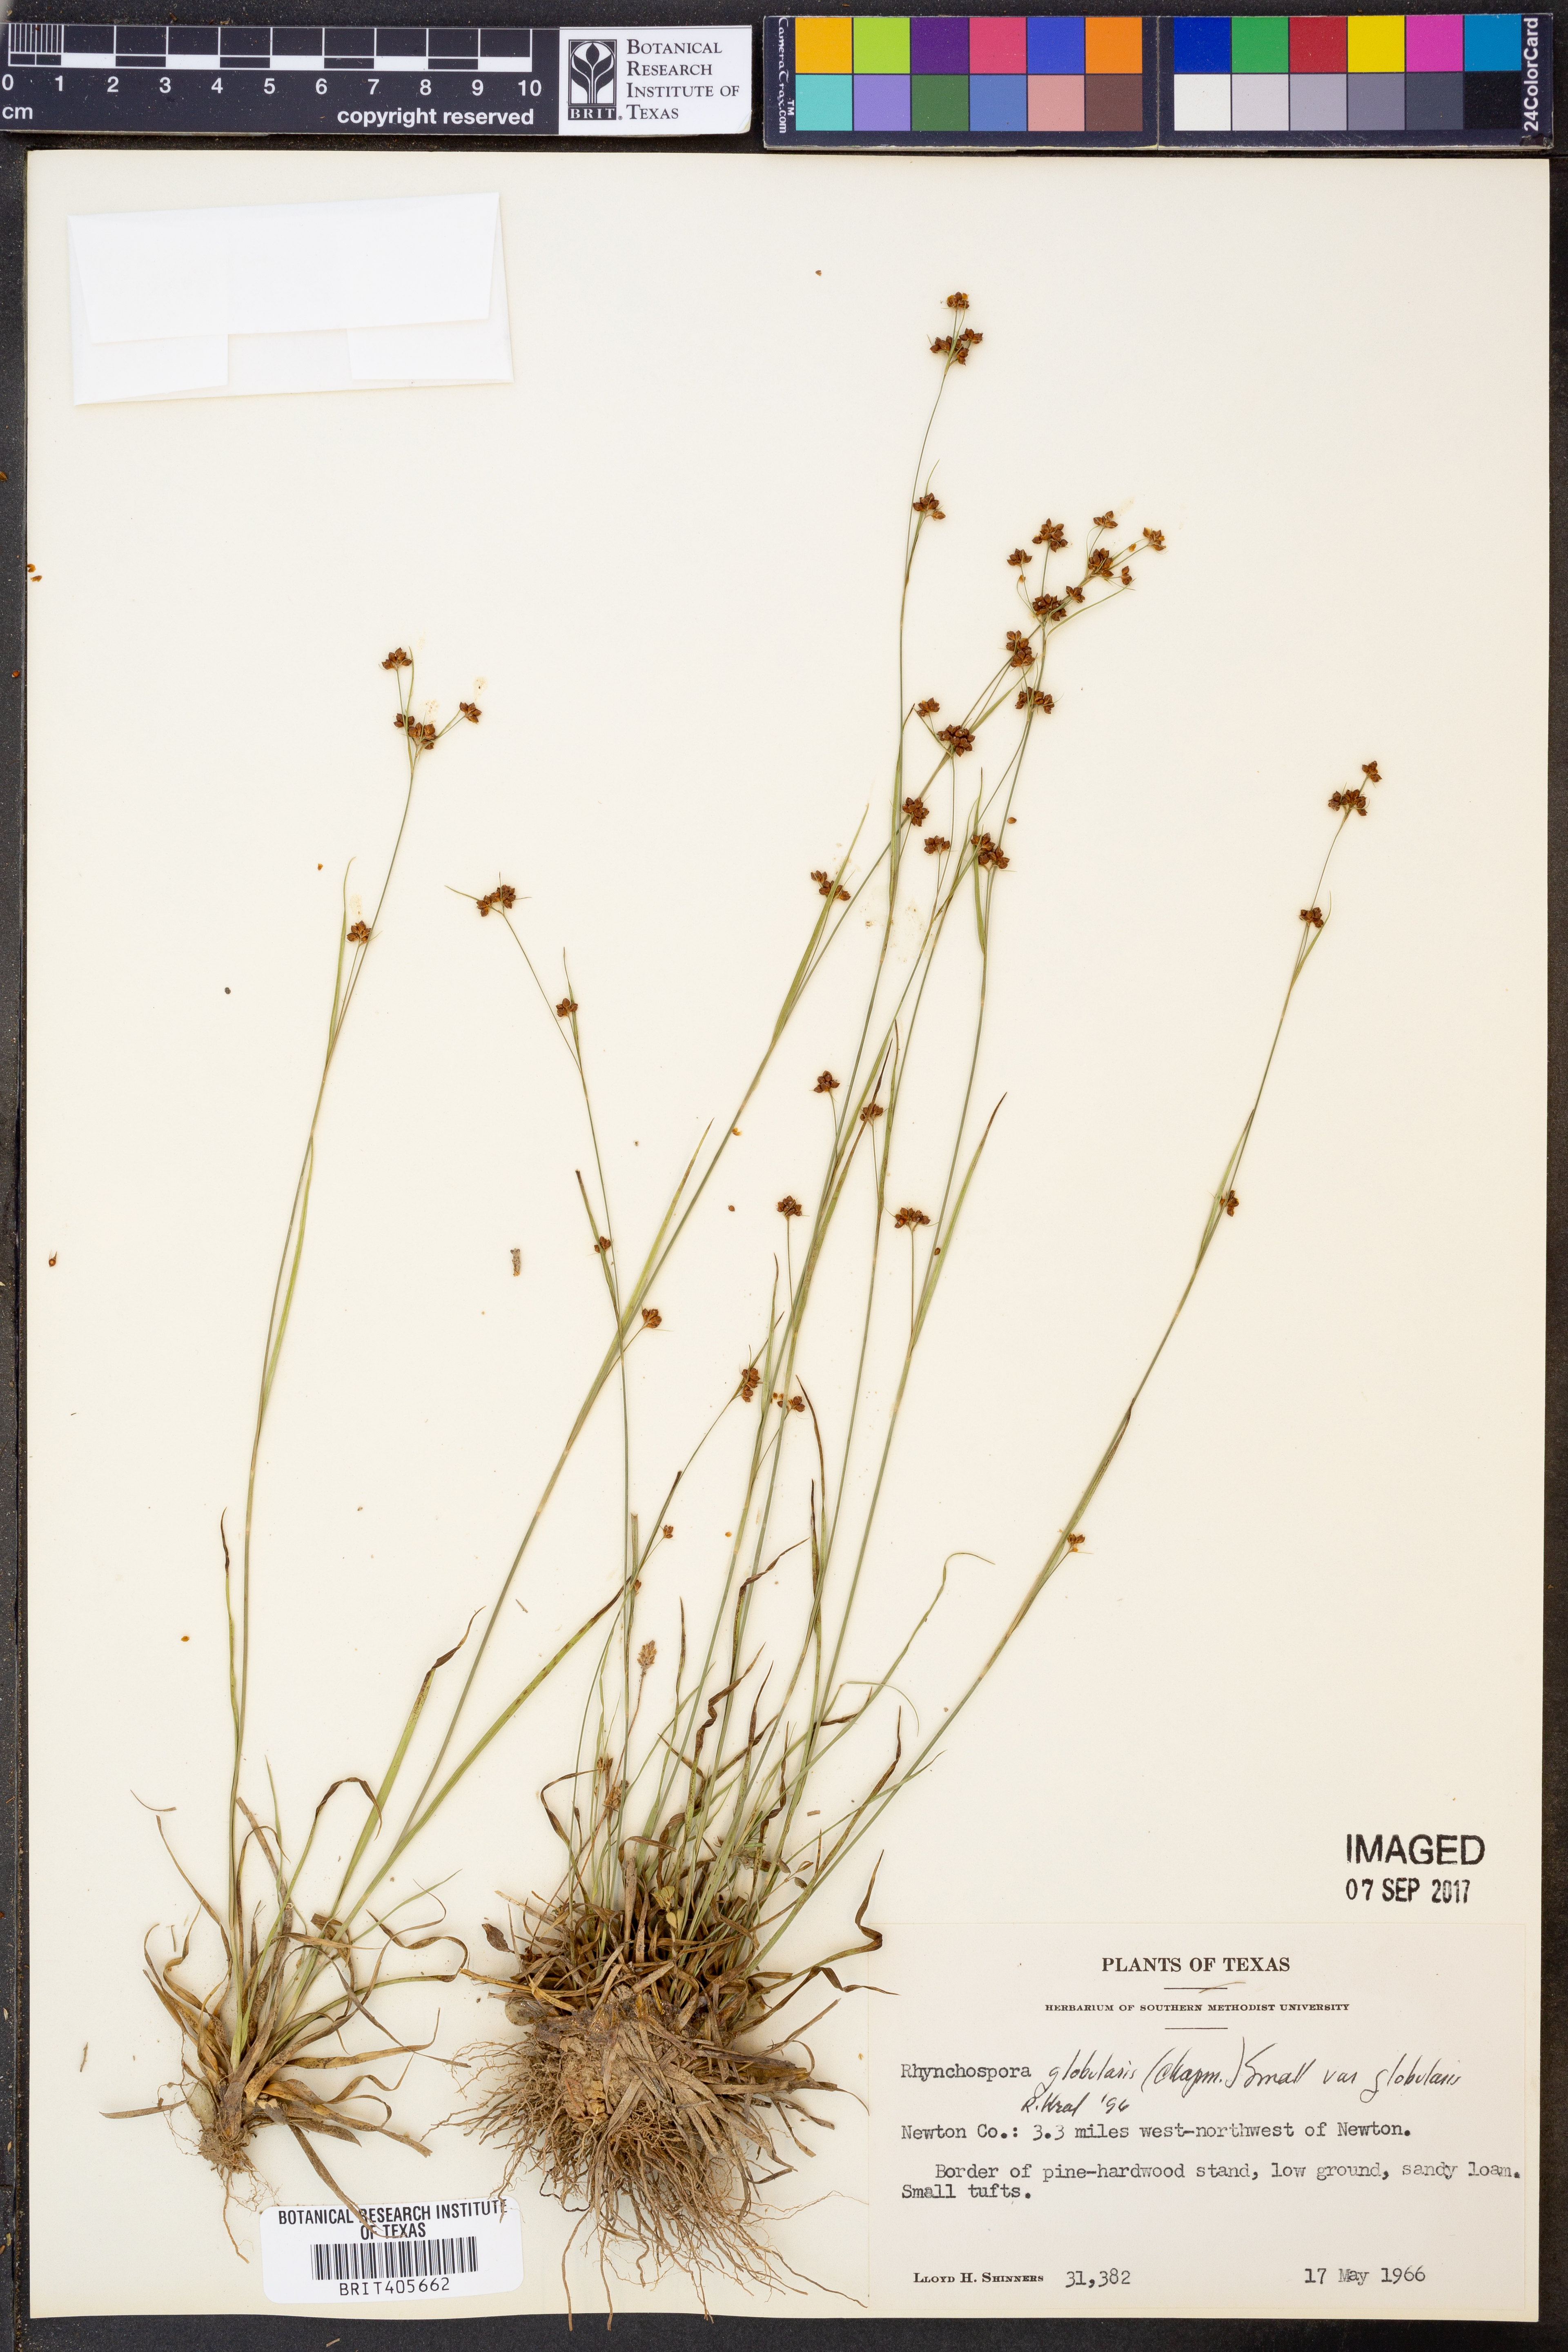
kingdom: Plantae
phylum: Tracheophyta
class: Liliopsida
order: Poales
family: Cyperaceae
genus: Rhynchospora
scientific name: Rhynchospora globularis
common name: Globe beaksedge
